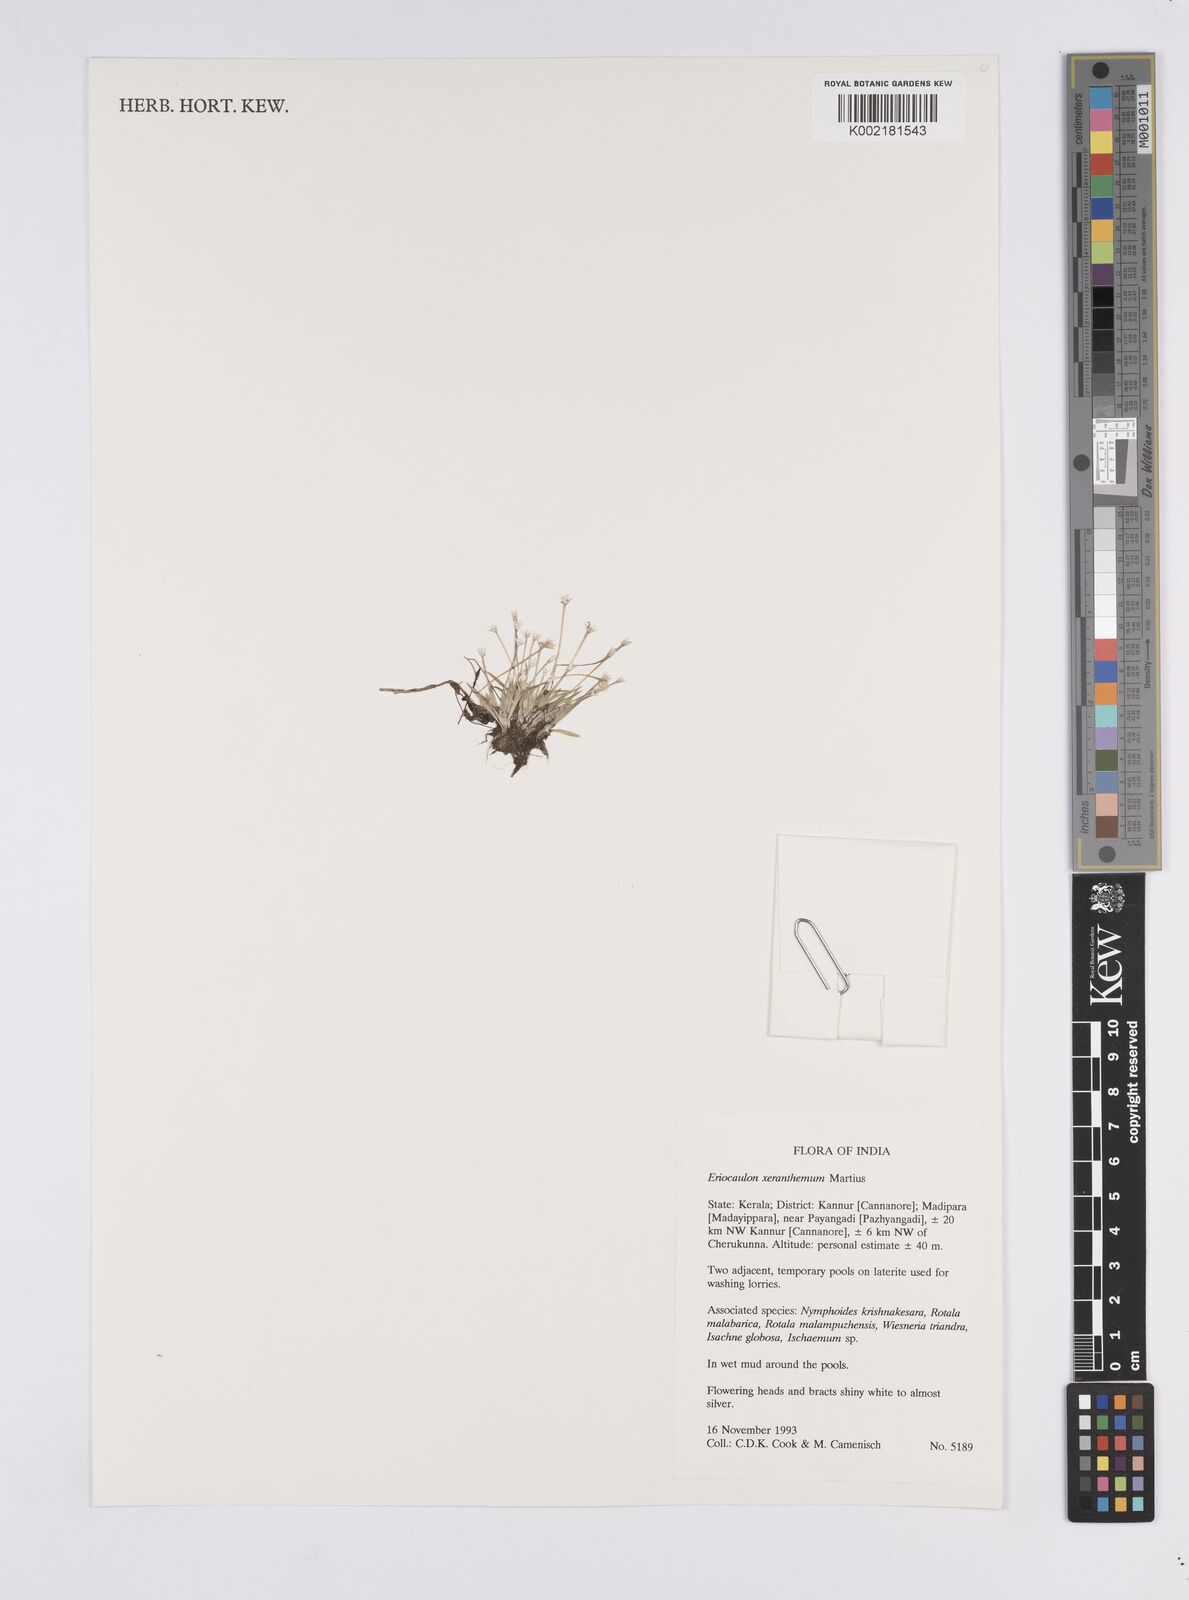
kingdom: Plantae
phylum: Tracheophyta
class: Liliopsida
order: Poales
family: Eriocaulaceae
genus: Eriocaulon
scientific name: Eriocaulon xeranthemum
